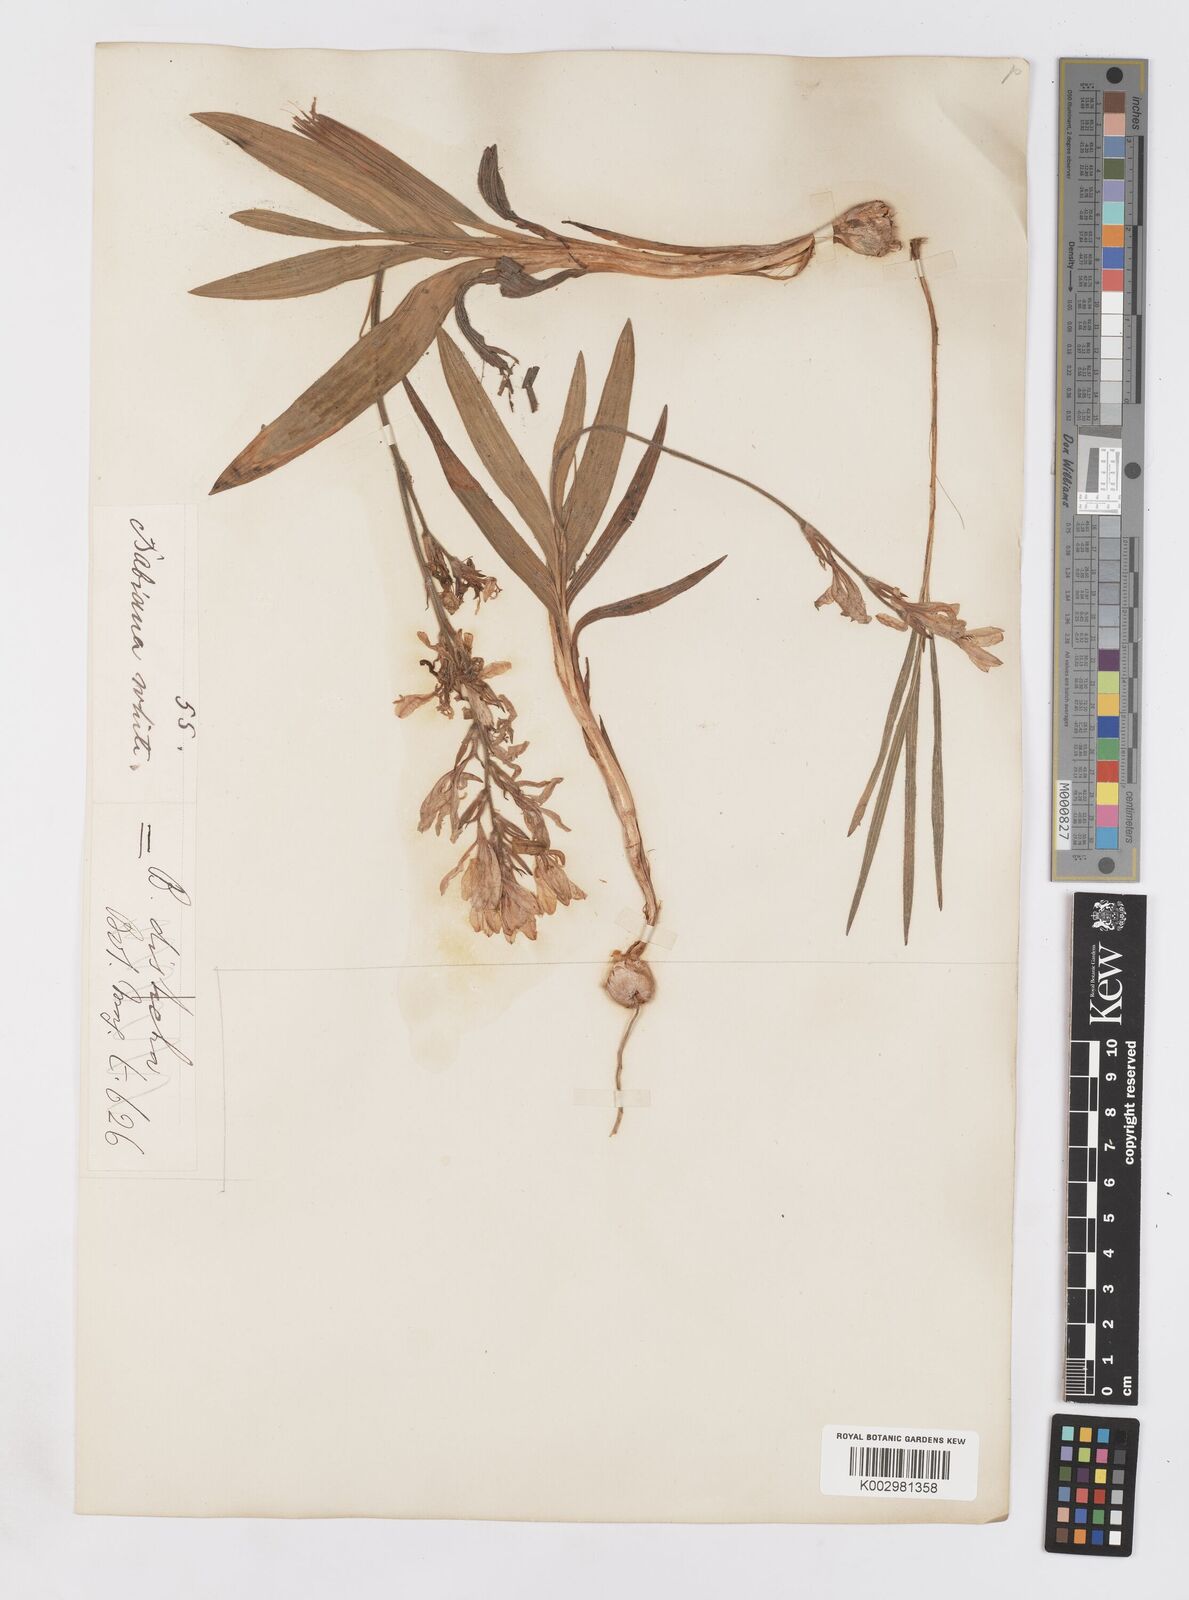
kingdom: Plantae
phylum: Tracheophyta
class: Liliopsida
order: Asparagales
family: Iridaceae
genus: Babiana
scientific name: Babiana
